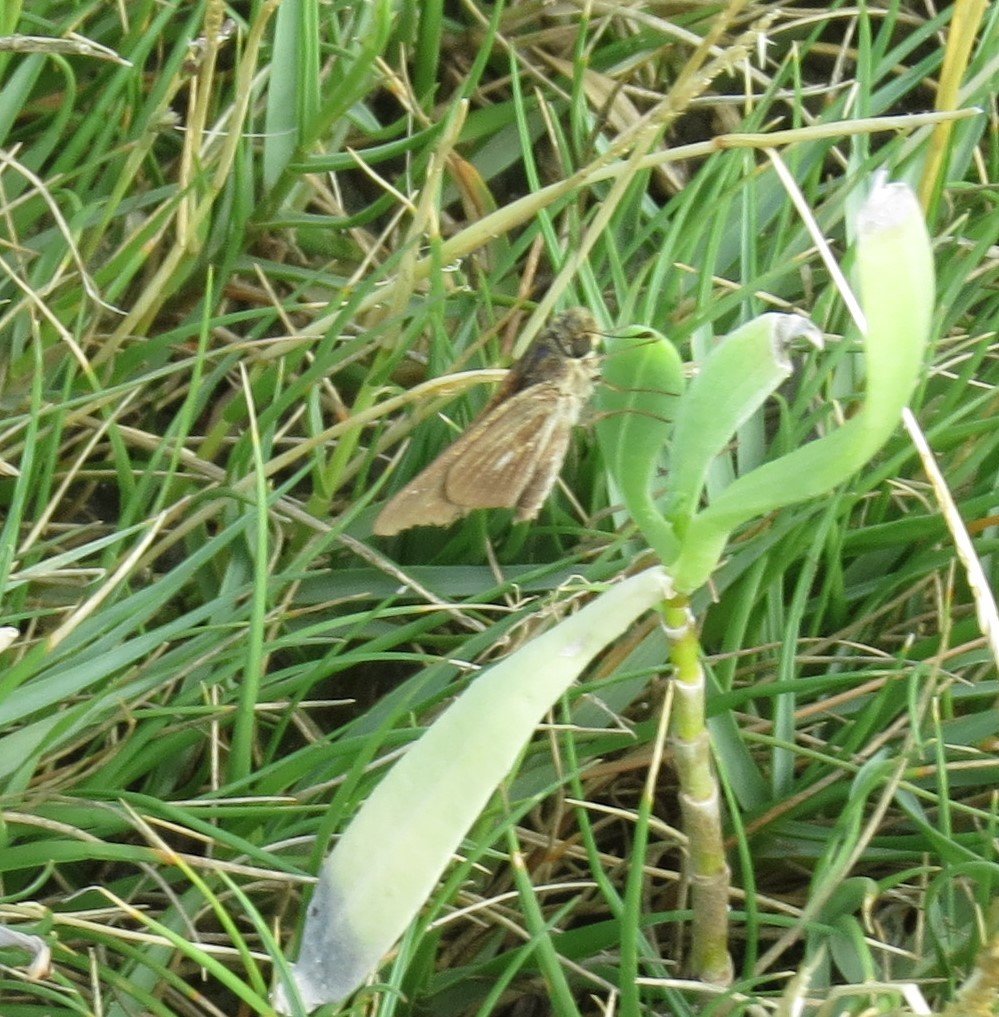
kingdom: Animalia
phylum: Arthropoda
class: Insecta
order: Lepidoptera
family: Hesperiidae
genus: Panoquina
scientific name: Panoquina panoquin
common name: Salt Marsh Skipper
